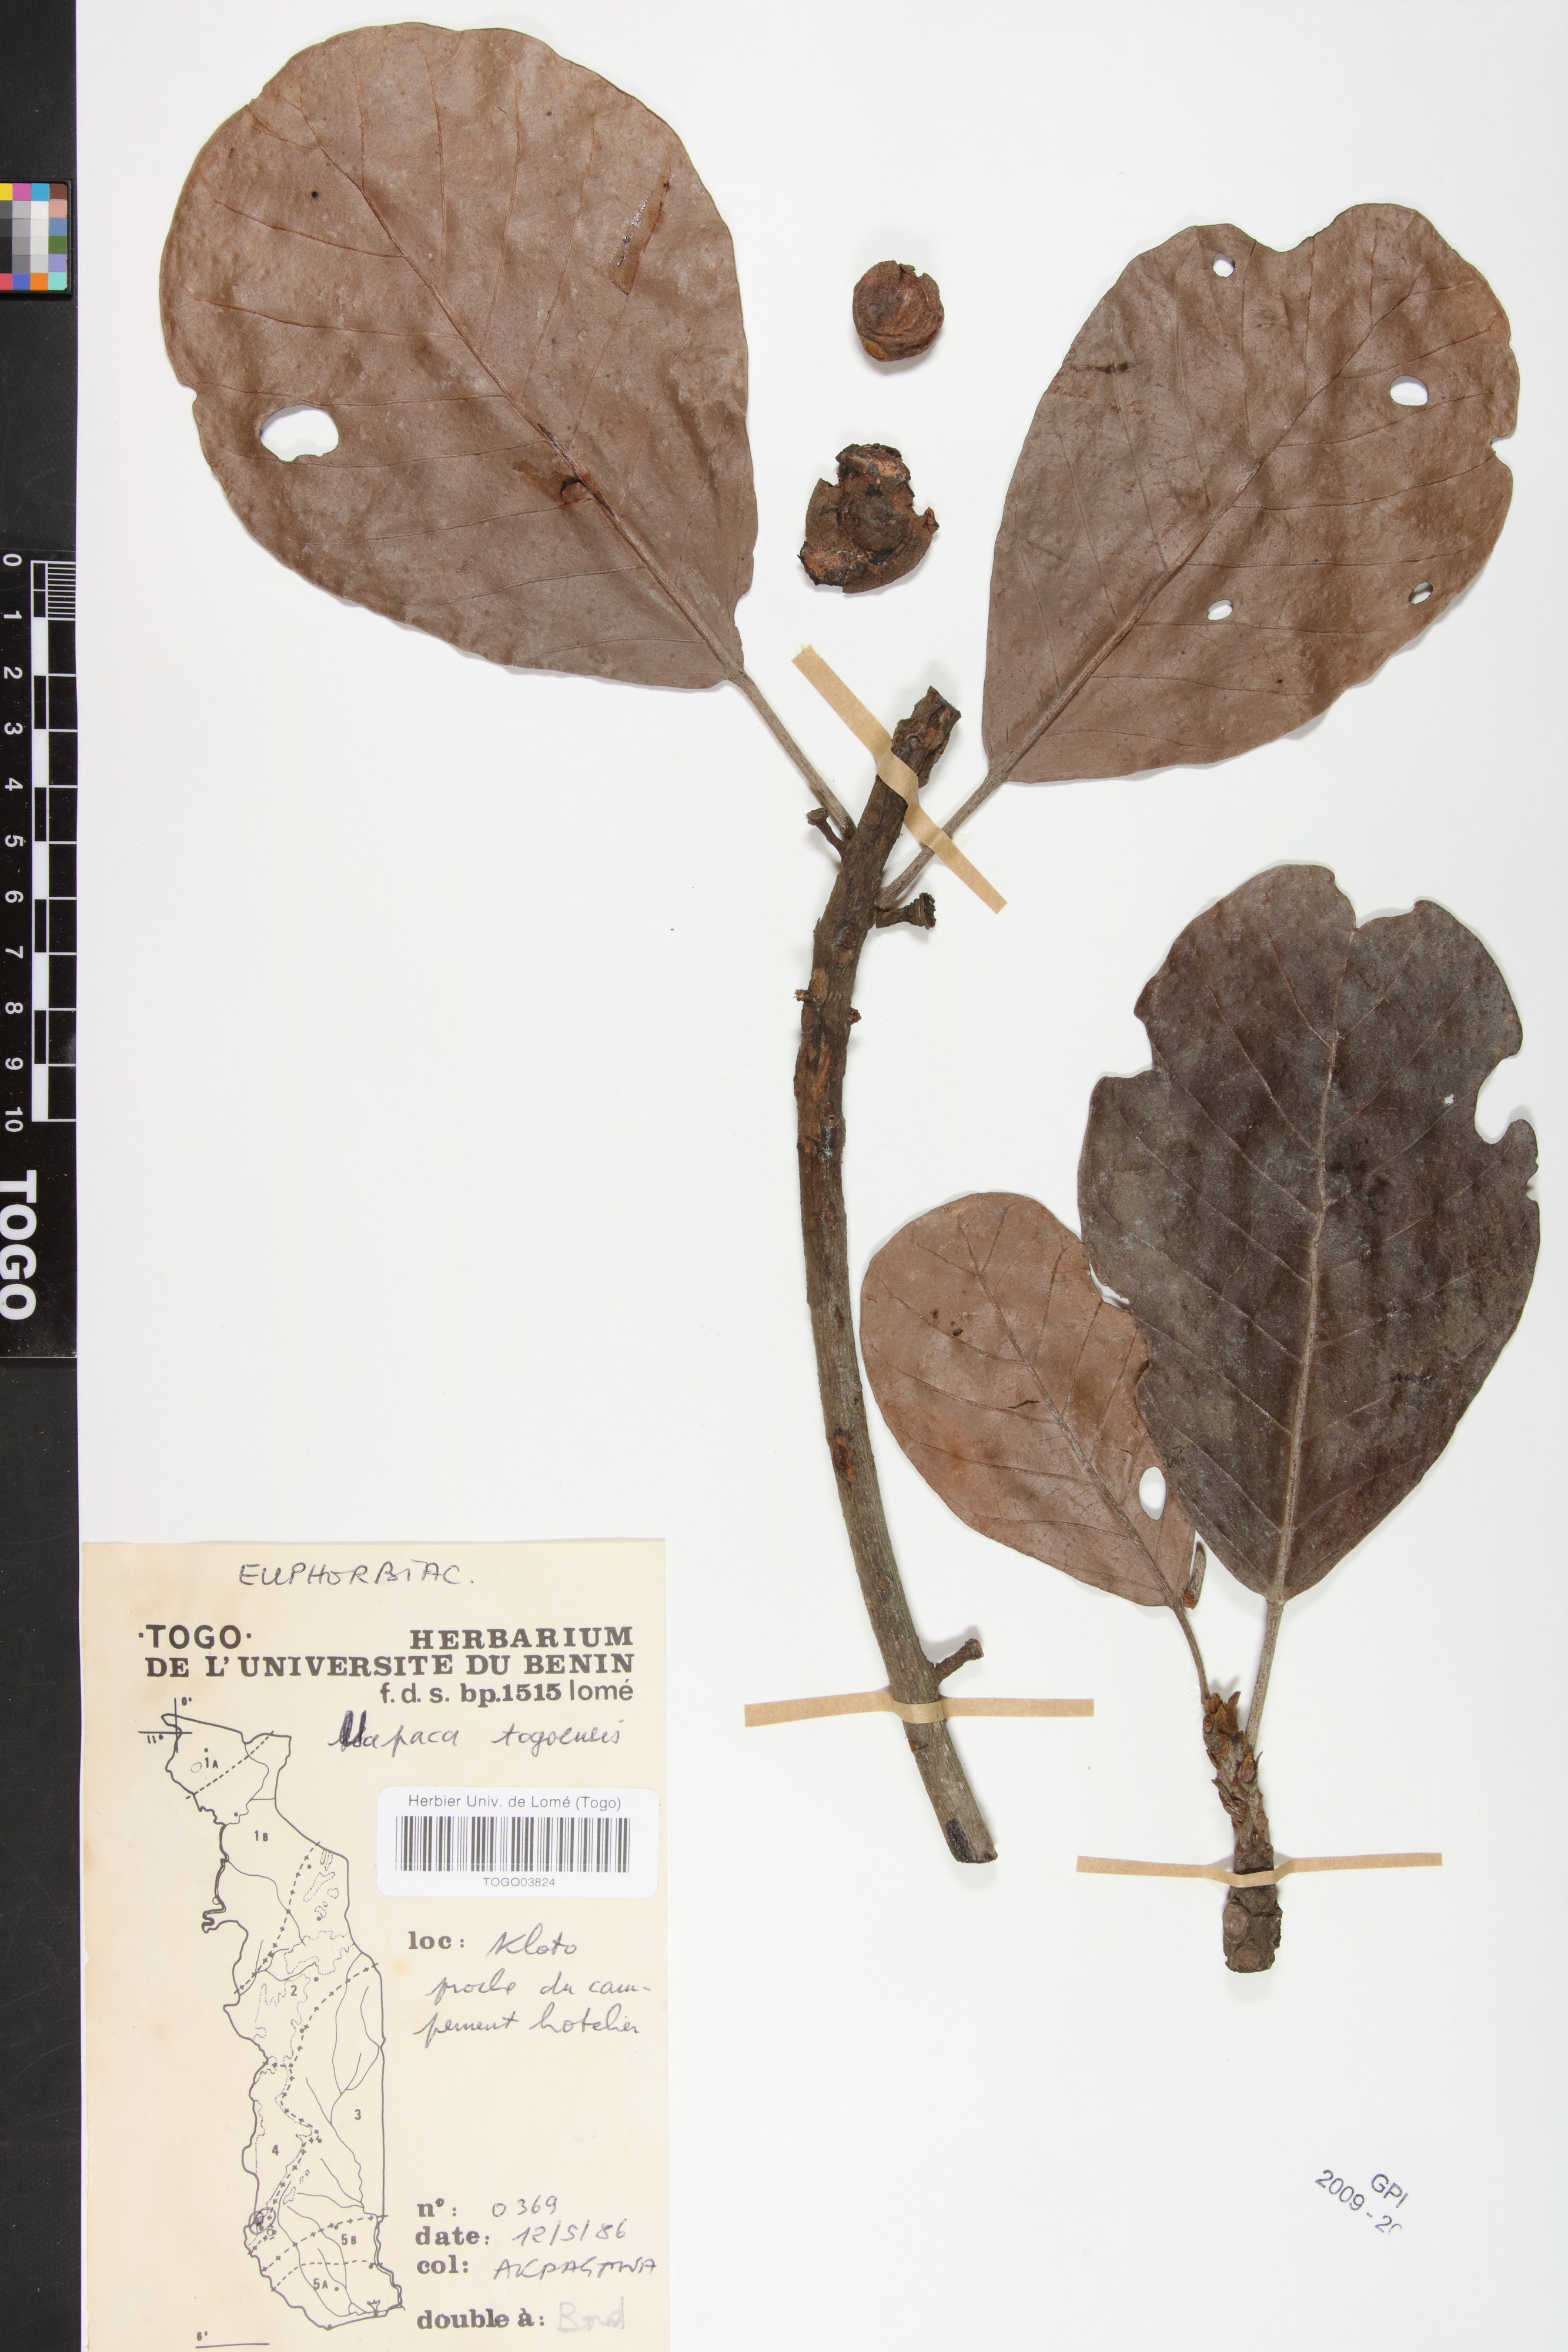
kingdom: Plantae
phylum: Tracheophyta
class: Magnoliopsida
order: Malpighiales
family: Phyllanthaceae
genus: Uapaca
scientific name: Uapaca togoensis
